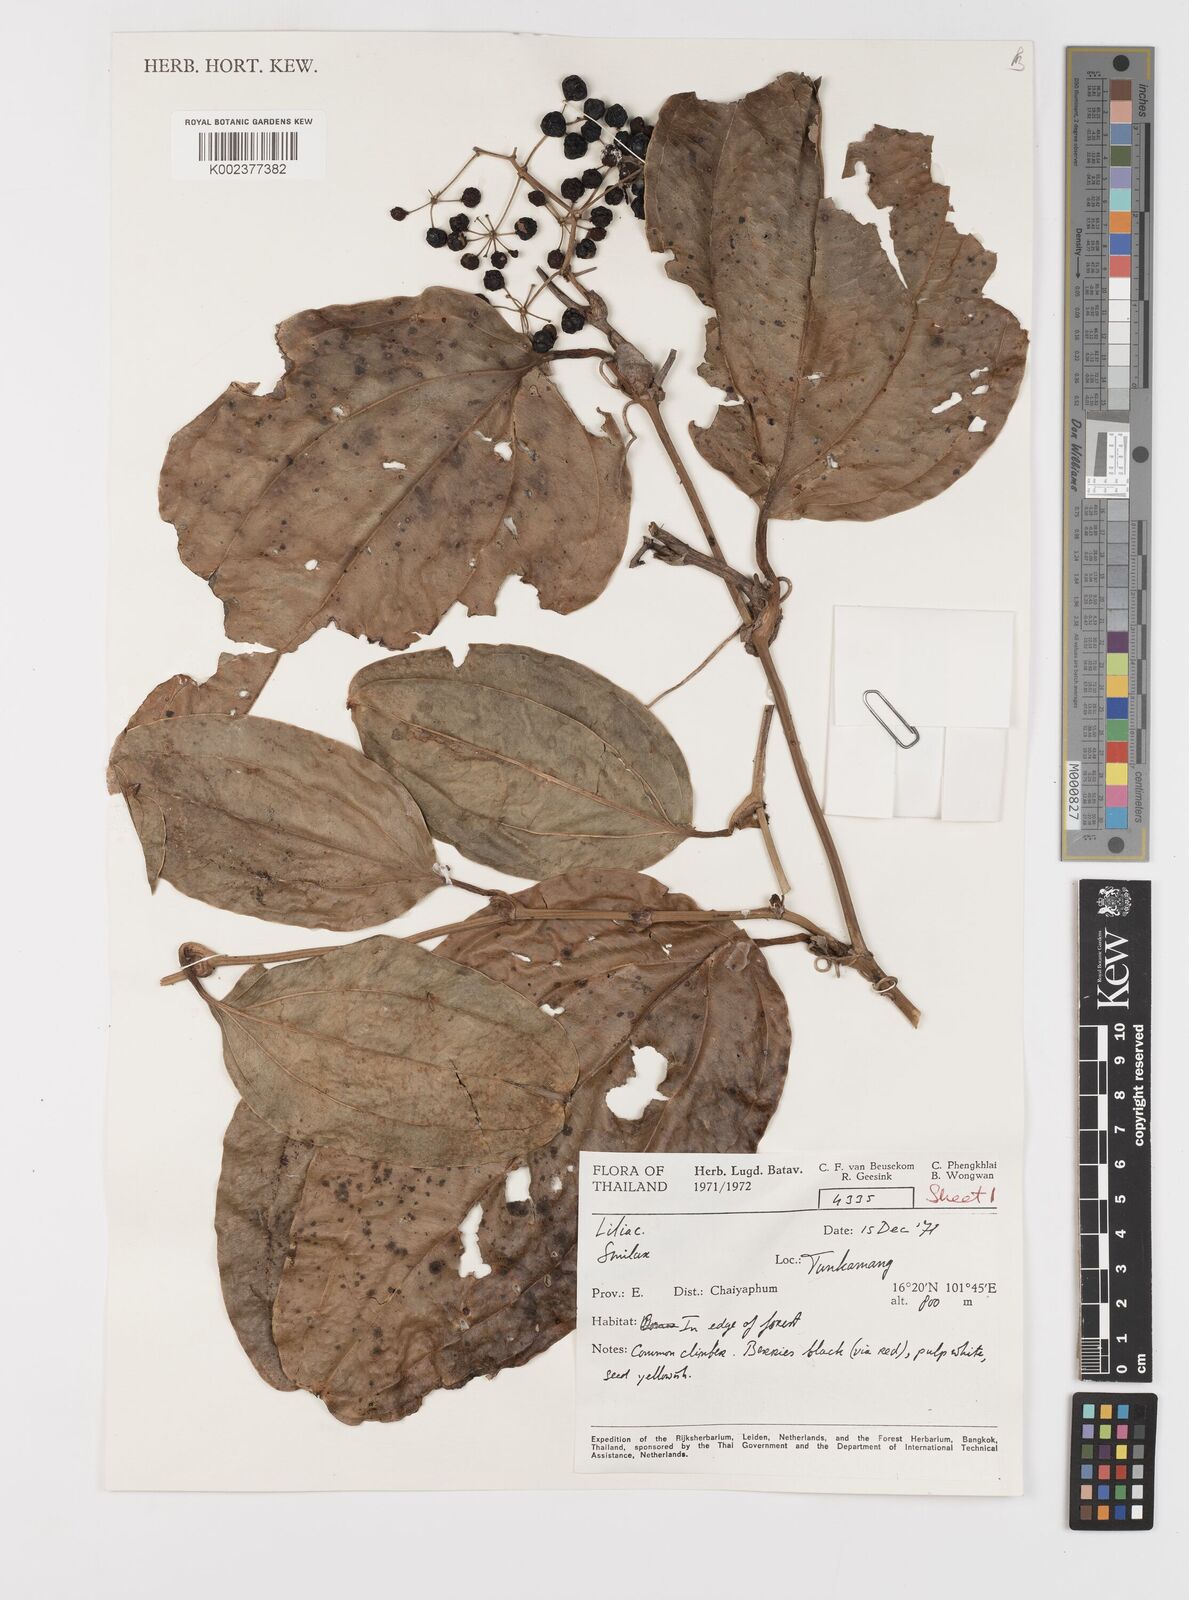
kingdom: Plantae
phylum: Tracheophyta
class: Liliopsida
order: Liliales
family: Smilacaceae
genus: Smilax
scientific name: Smilax
